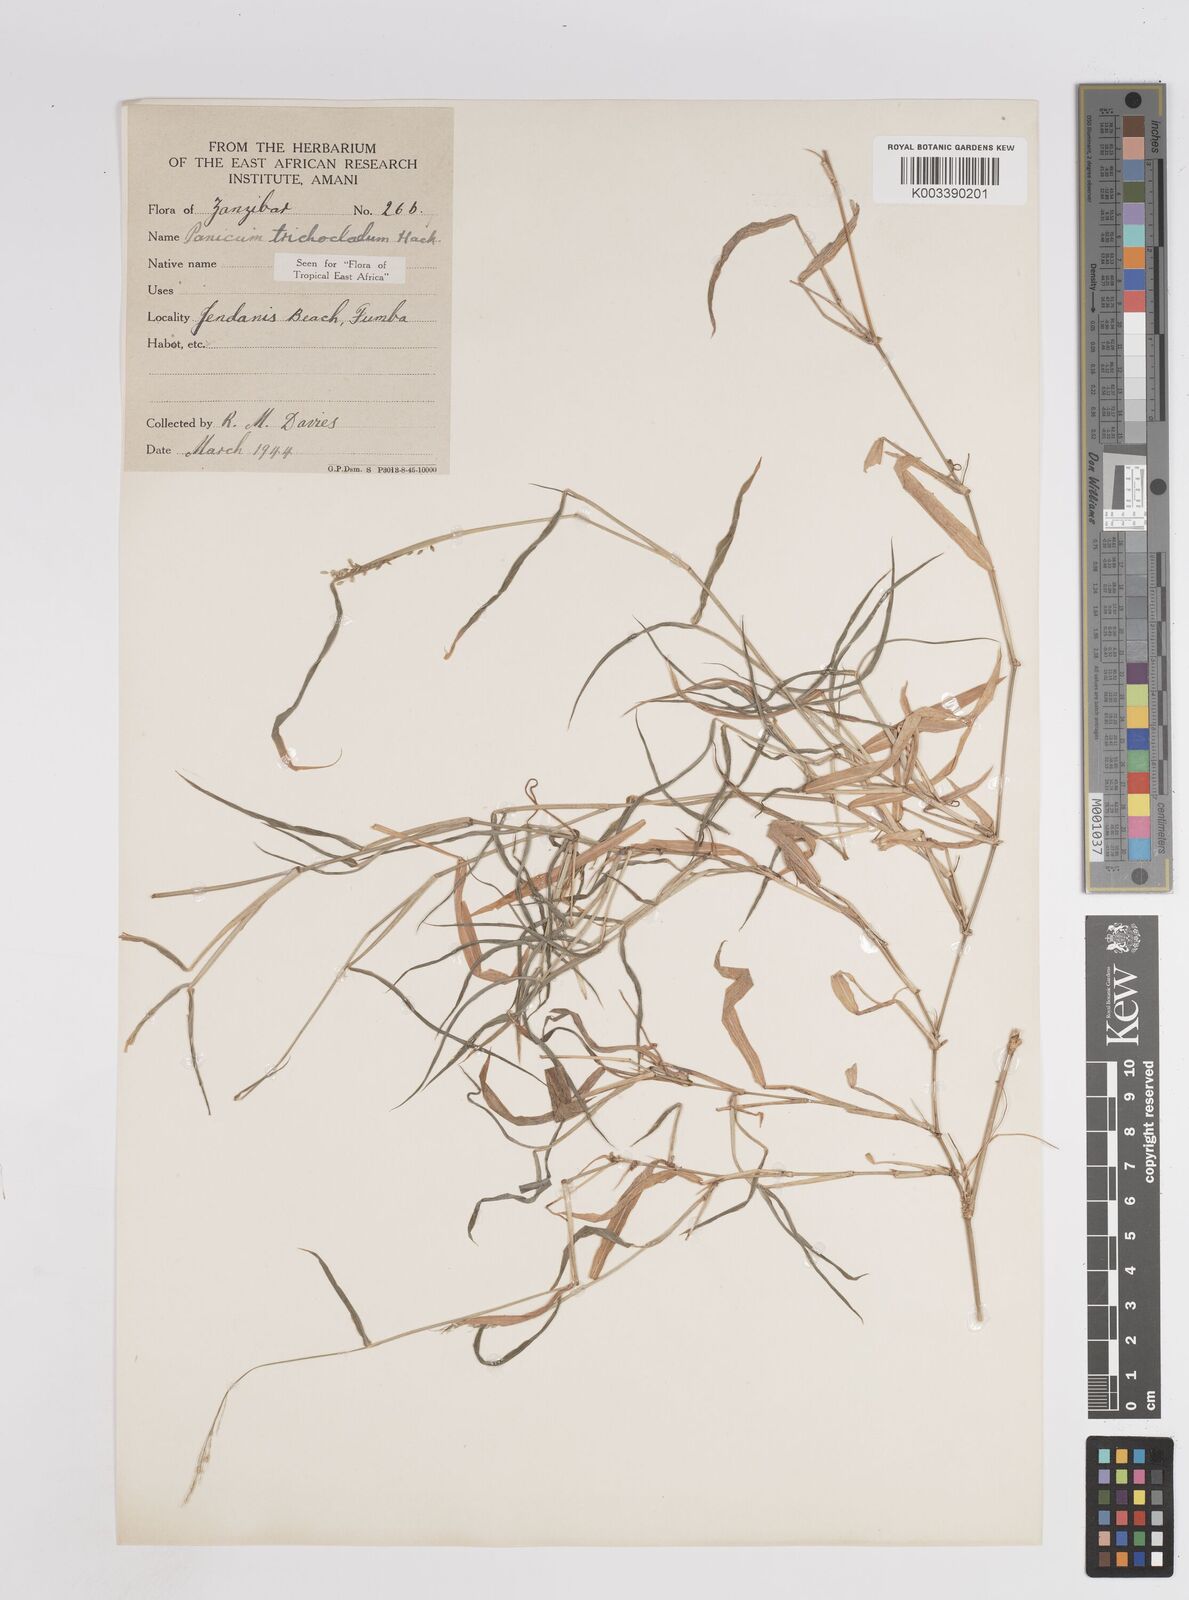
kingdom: Plantae
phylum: Tracheophyta
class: Liliopsida
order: Poales
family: Poaceae
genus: Panicum
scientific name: Panicum trichocladum
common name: Donkey grass
